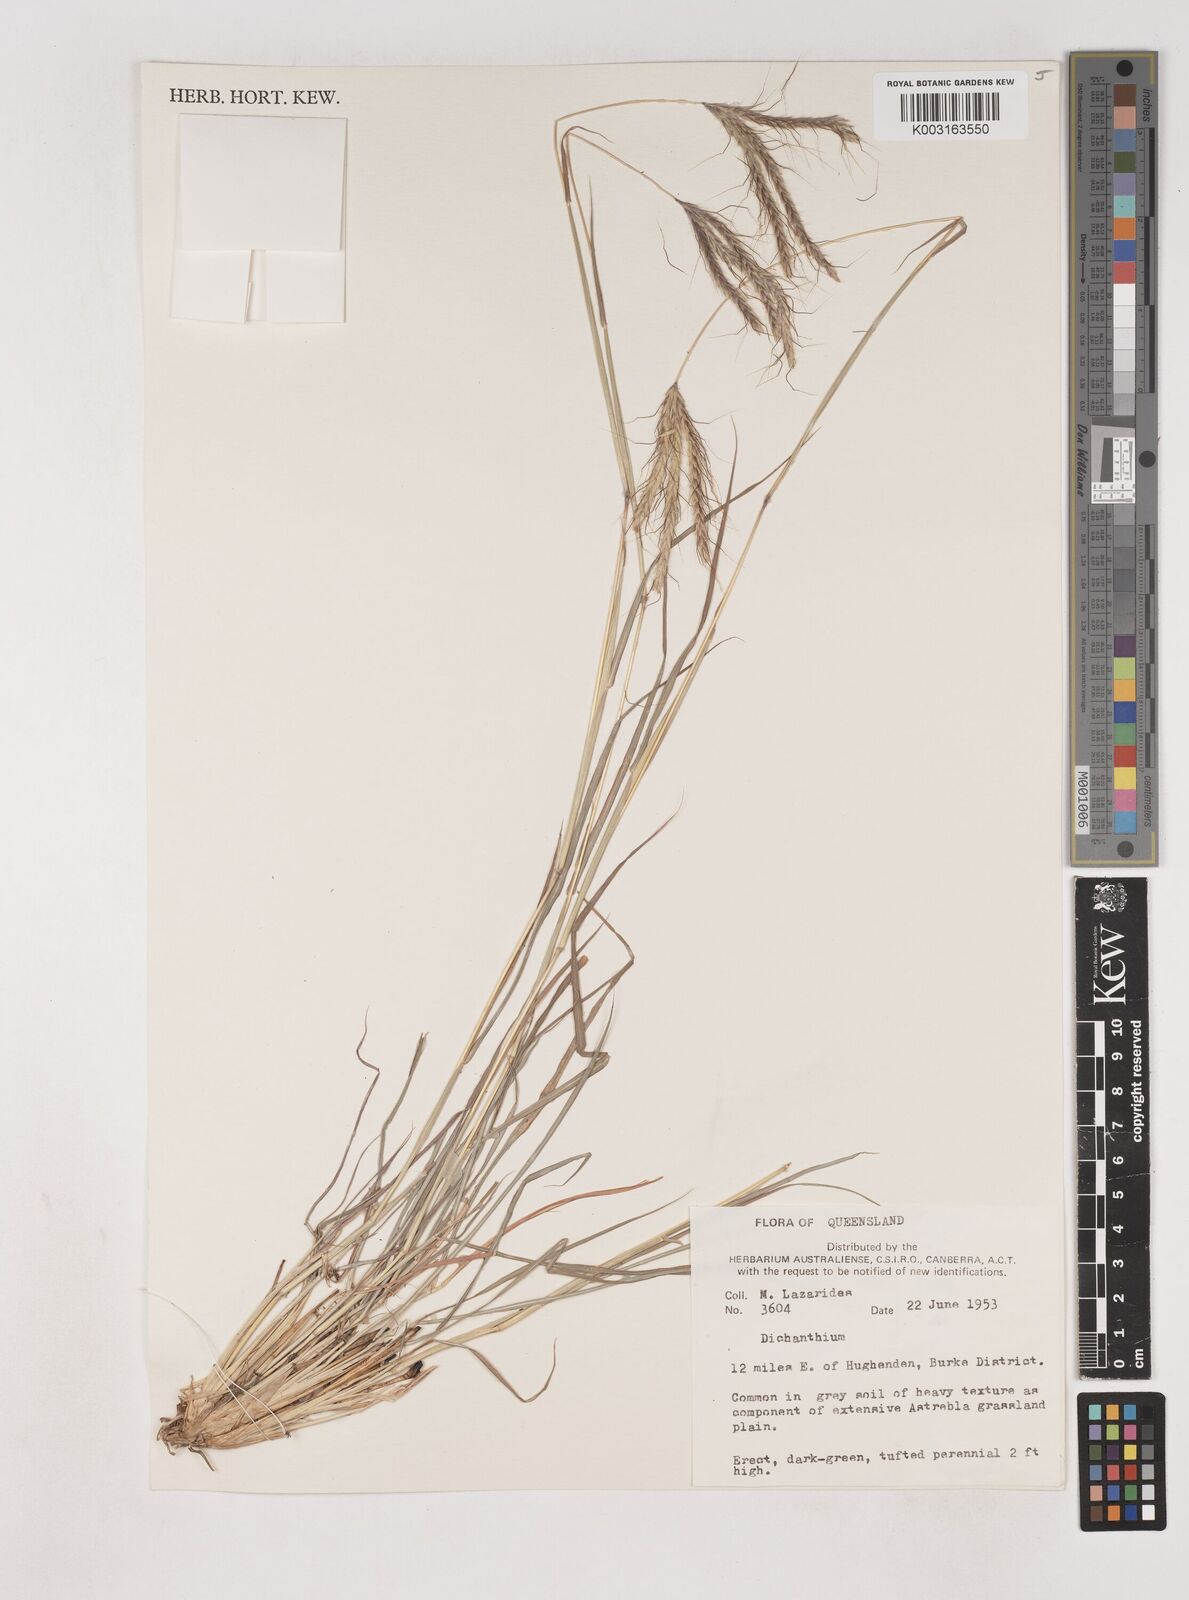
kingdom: Plantae
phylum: Tracheophyta
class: Liliopsida
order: Poales
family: Poaceae
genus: Dichanthium
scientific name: Dichanthium
